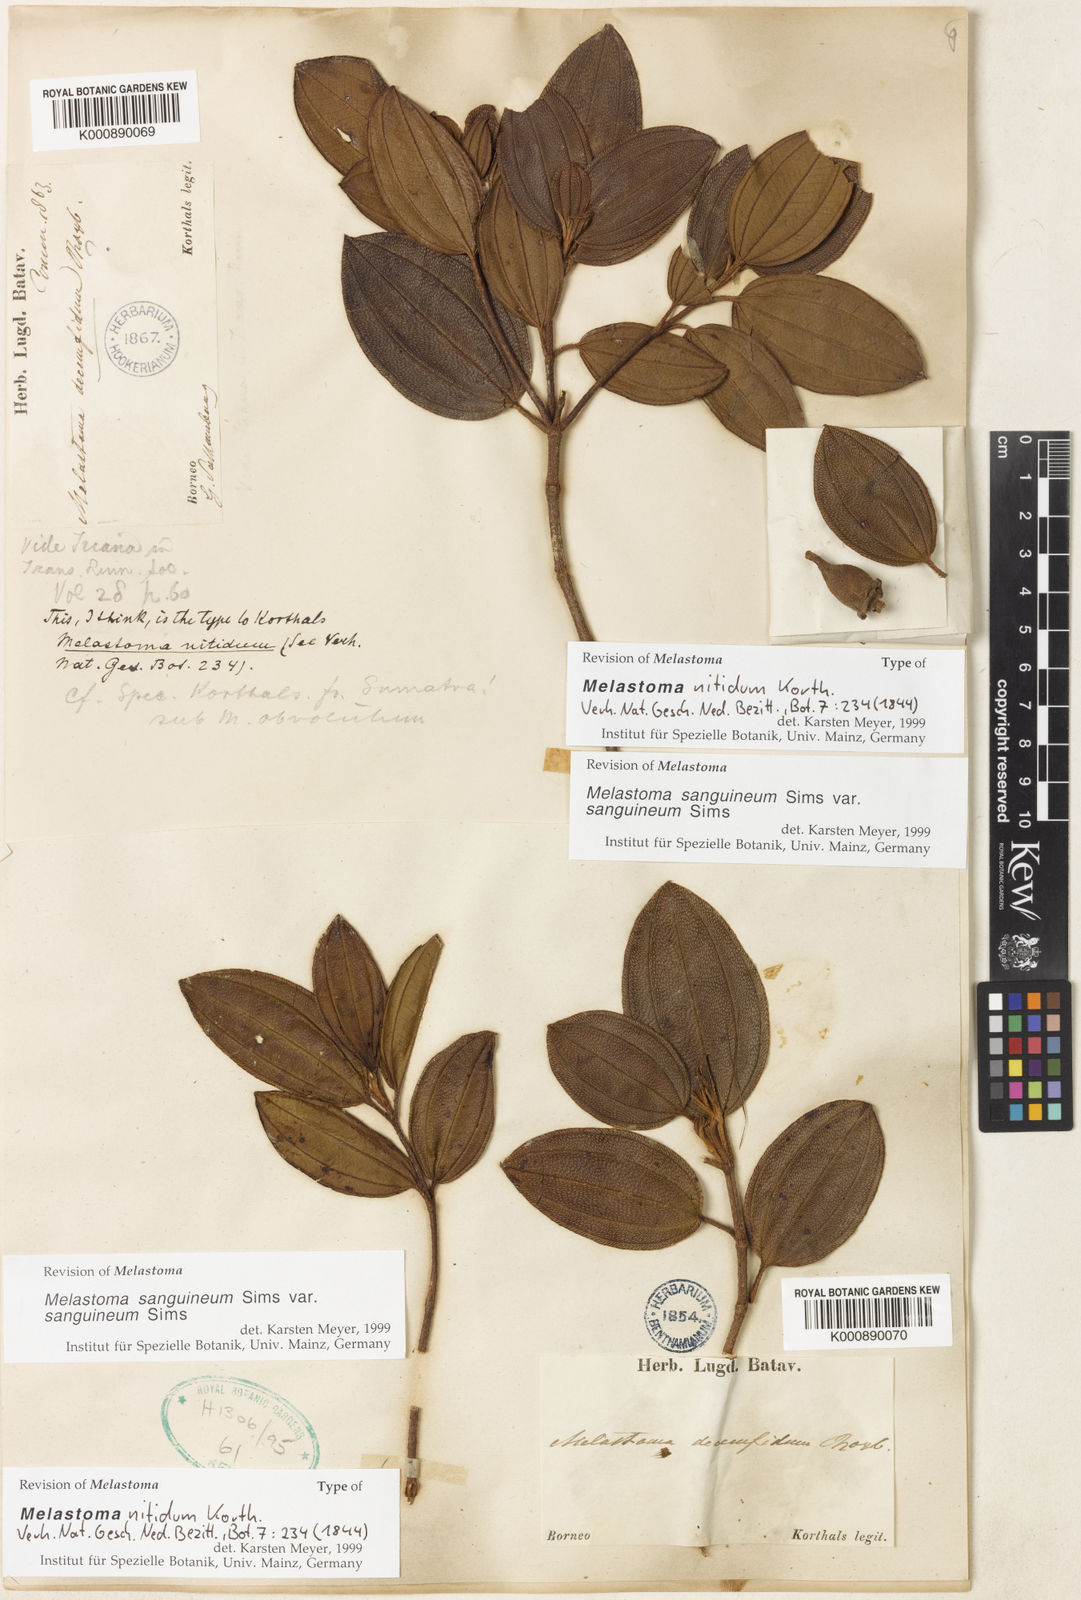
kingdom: Plantae
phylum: Tracheophyta
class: Magnoliopsida
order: Myrtales
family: Melastomataceae
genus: Melastoma
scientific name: Melastoma sanguineum
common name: Red melastome
